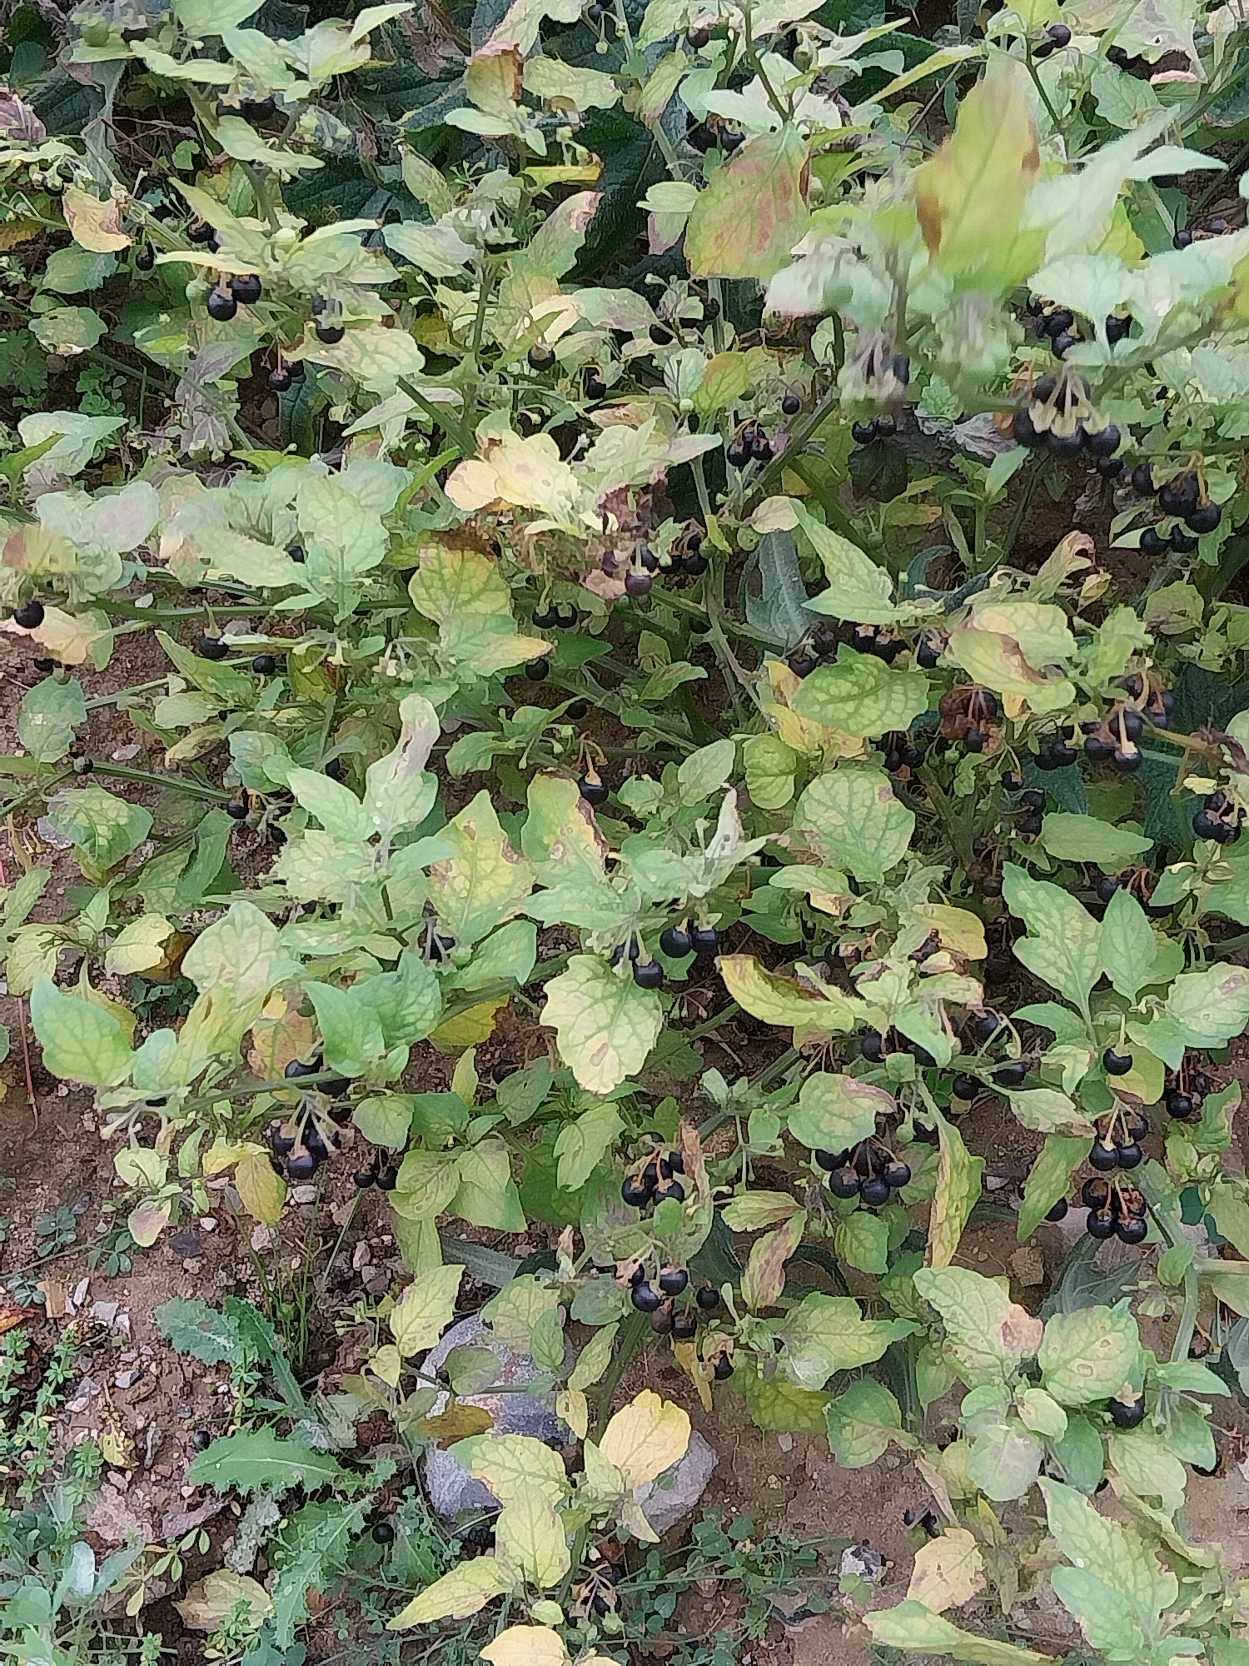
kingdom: Plantae
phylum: Tracheophyta
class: Magnoliopsida
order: Solanales
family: Solanaceae
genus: Solanum
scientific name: Solanum nigrum
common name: Sort natskygge (underart)
